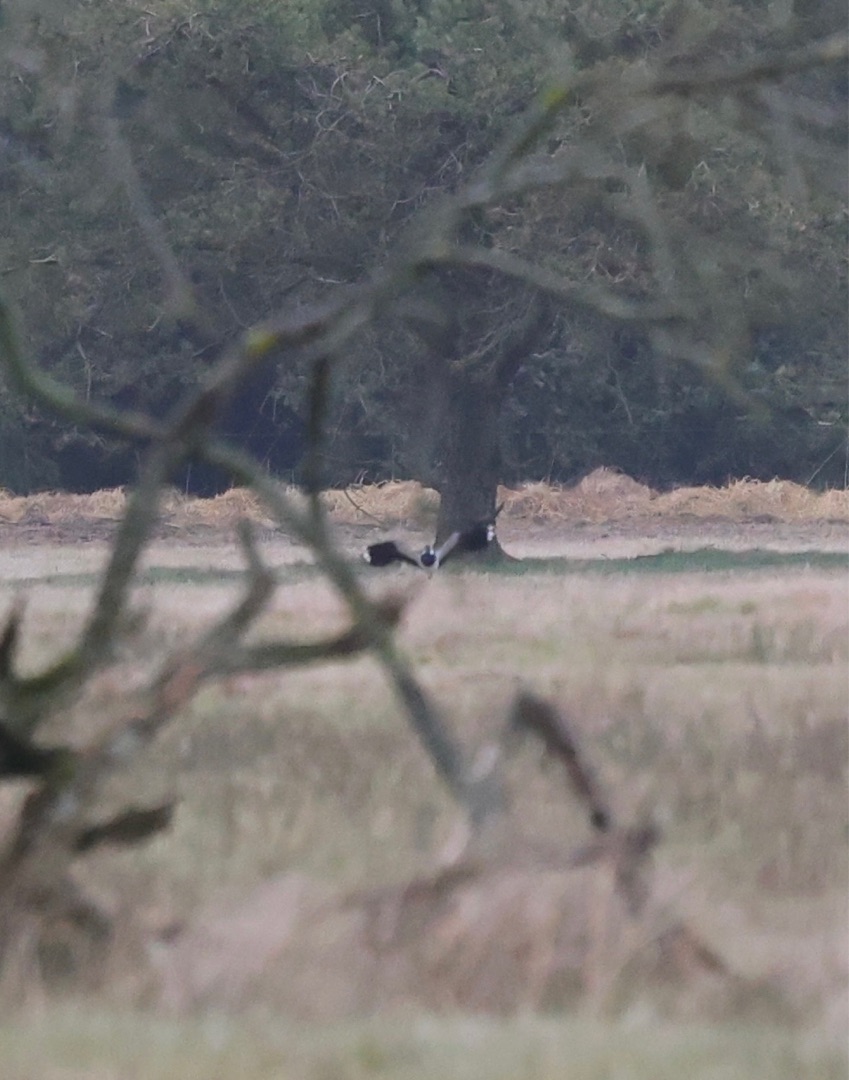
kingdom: Animalia
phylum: Chordata
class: Aves
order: Charadriiformes
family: Charadriidae
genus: Vanellus
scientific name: Vanellus vanellus
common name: Vibe
